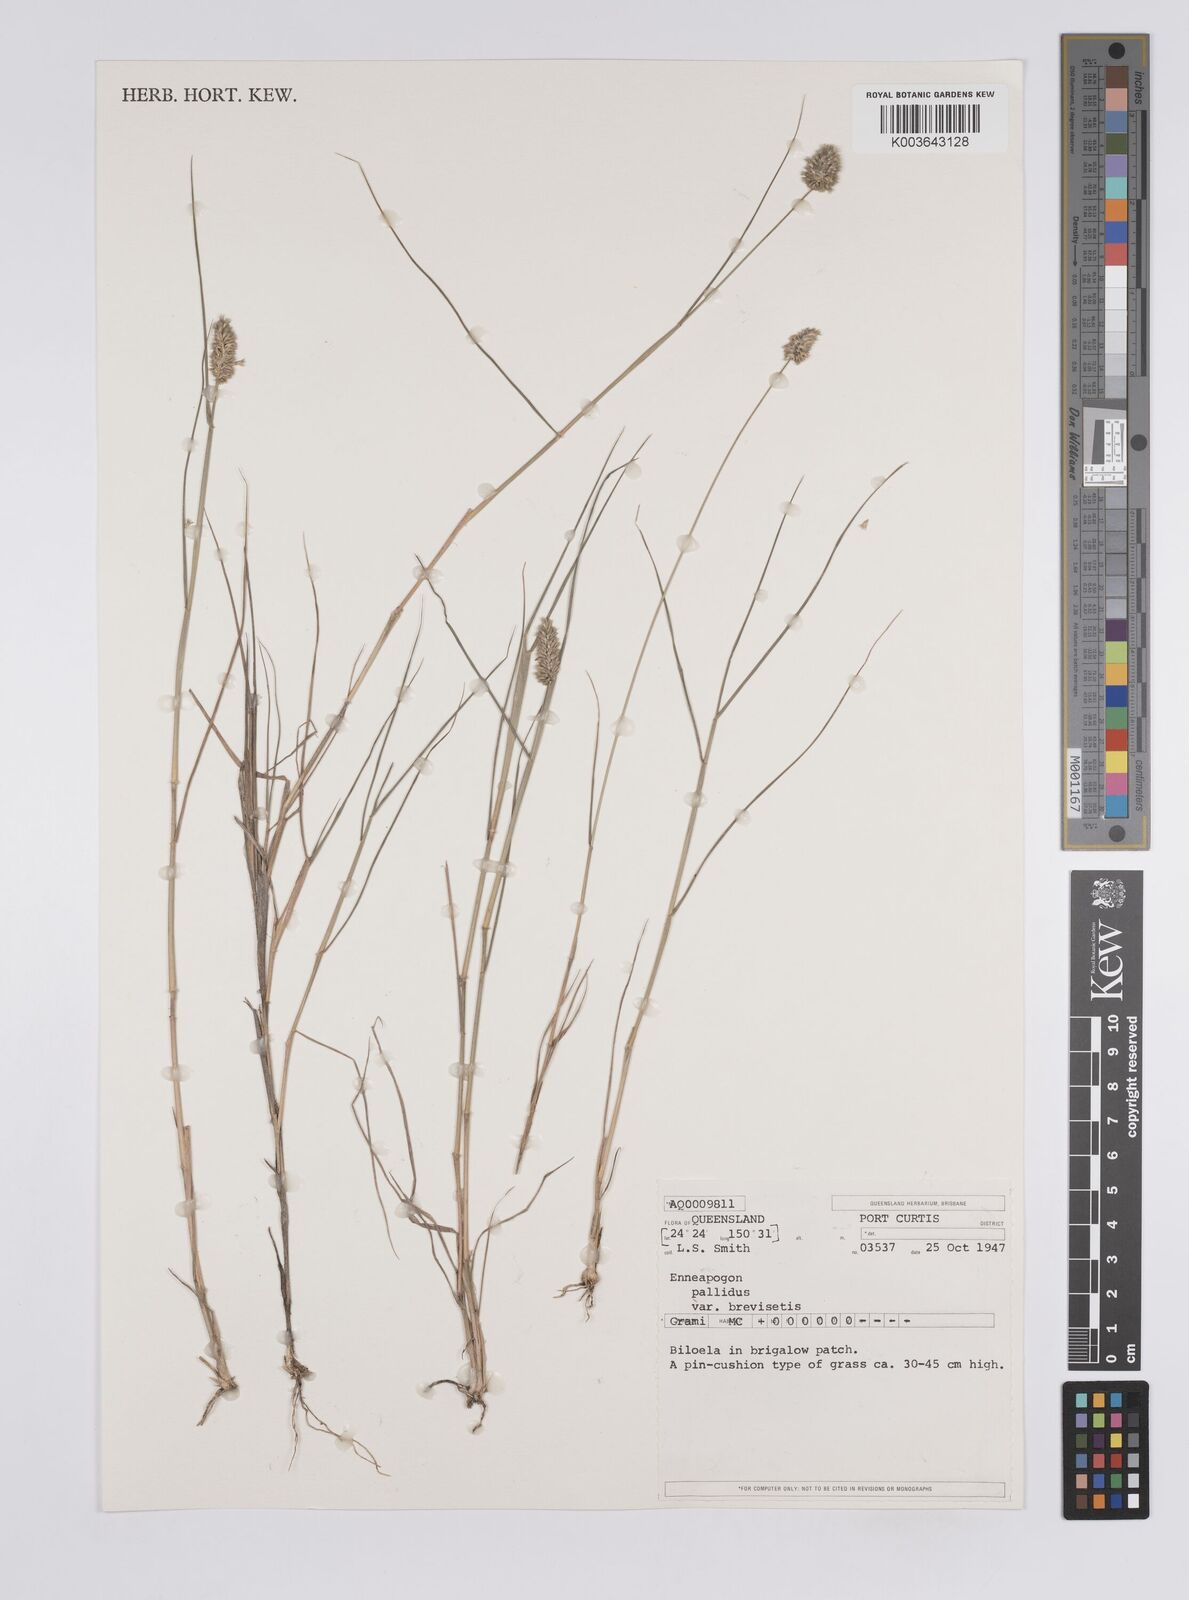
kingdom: Plantae
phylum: Tracheophyta
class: Liliopsida
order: Poales
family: Poaceae
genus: Enneapogon
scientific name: Enneapogon lindleyanus
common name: Conetop nineawn
